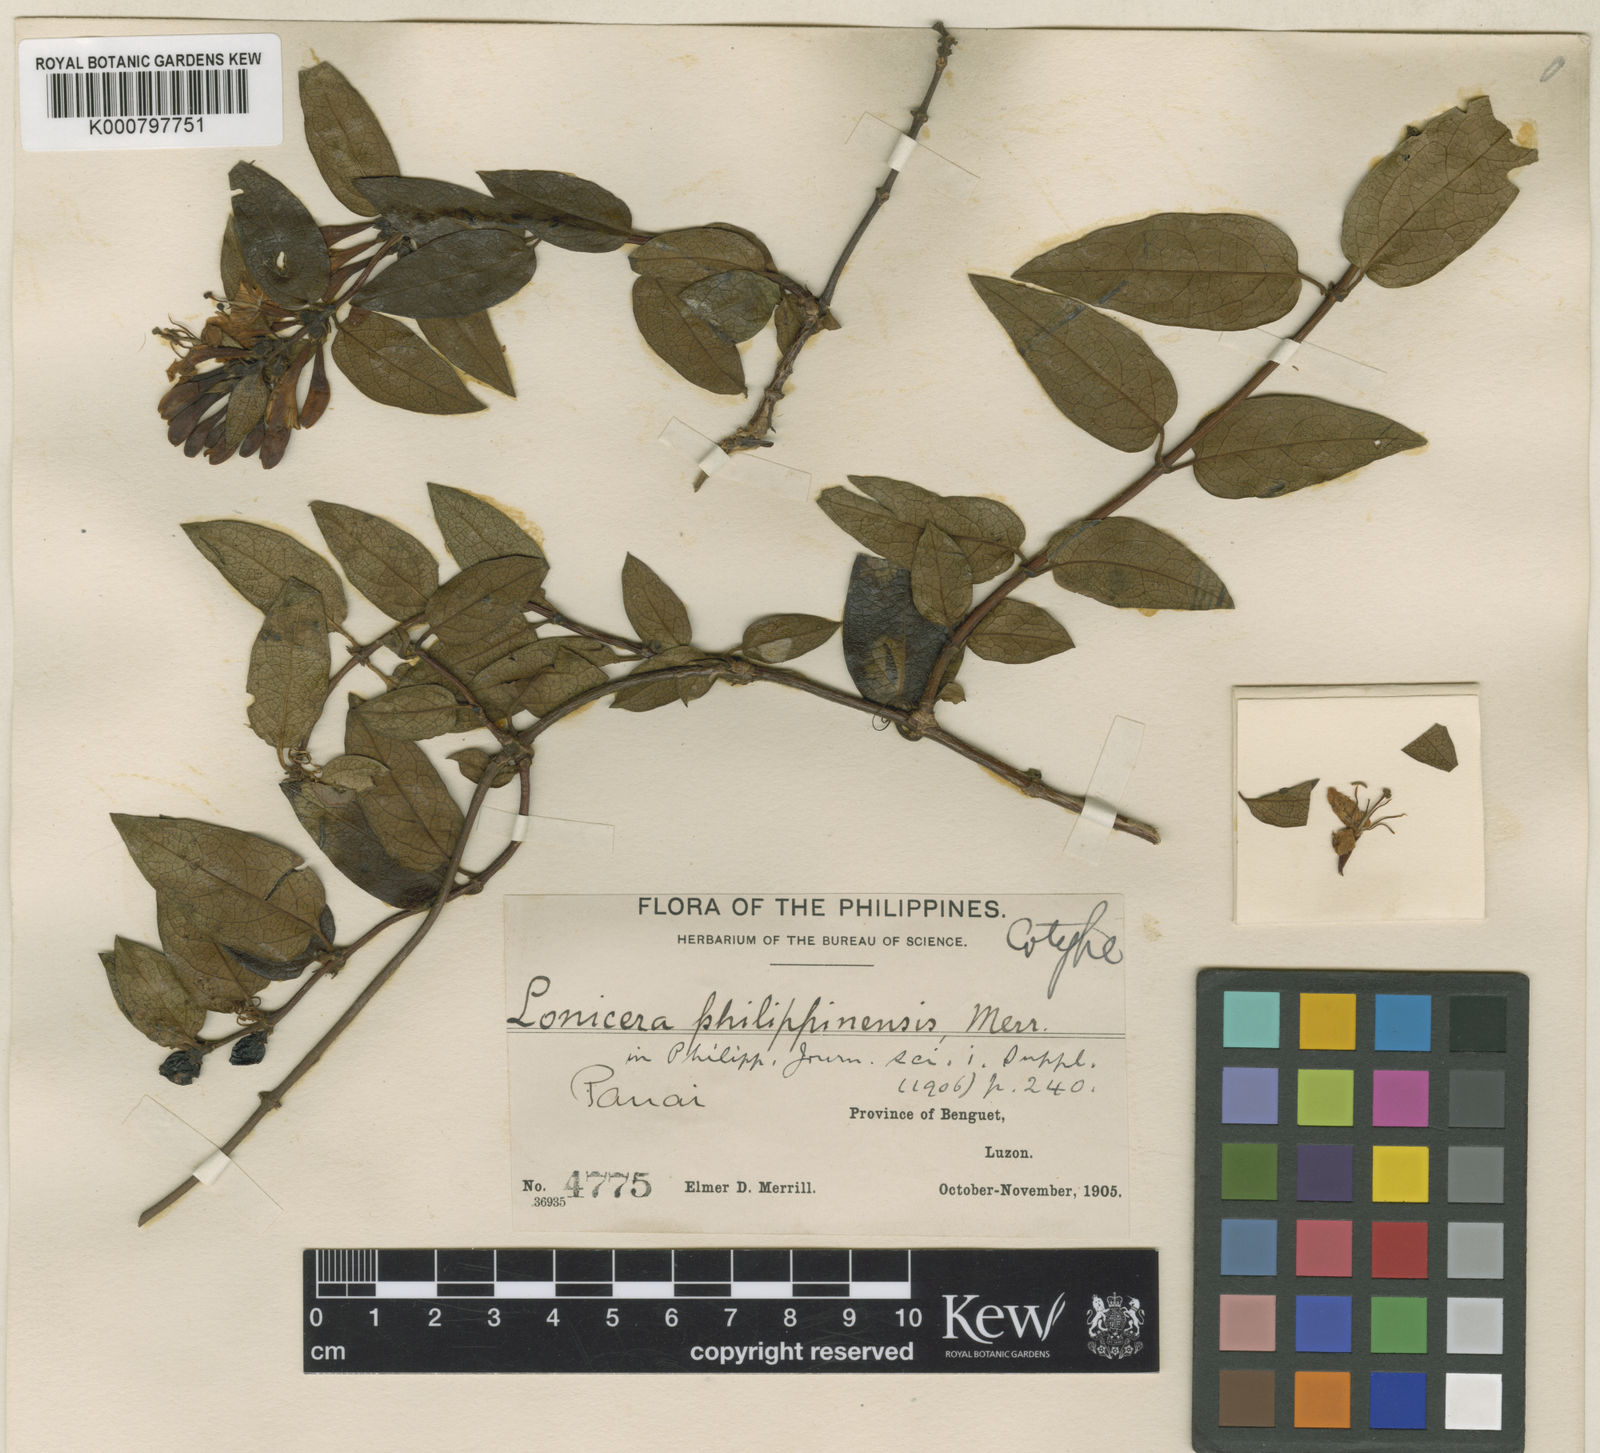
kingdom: Plantae
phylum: Tracheophyta
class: Magnoliopsida
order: Dipsacales
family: Caprifoliaceae
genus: Lonicera
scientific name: Lonicera acuminata
